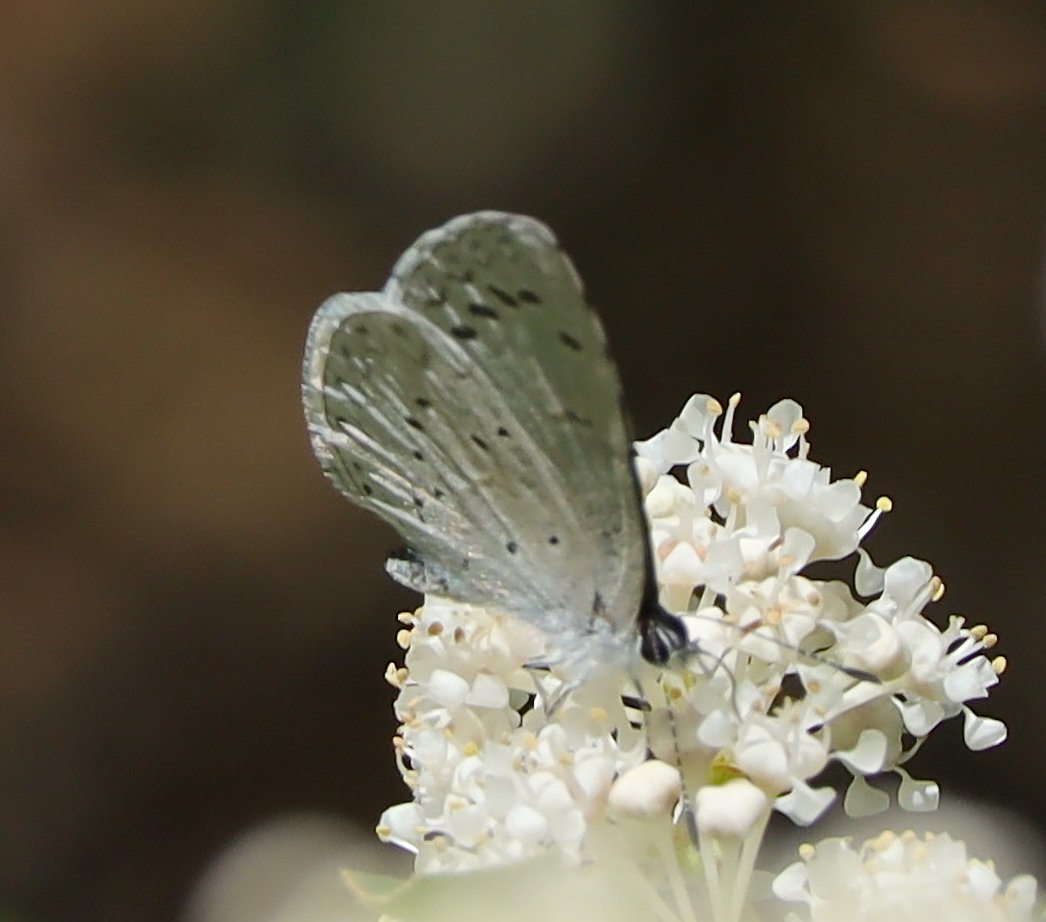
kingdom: Animalia
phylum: Arthropoda
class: Insecta
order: Lepidoptera
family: Lycaenidae
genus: Celastrina
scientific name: Celastrina ladon
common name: Echo Azure
